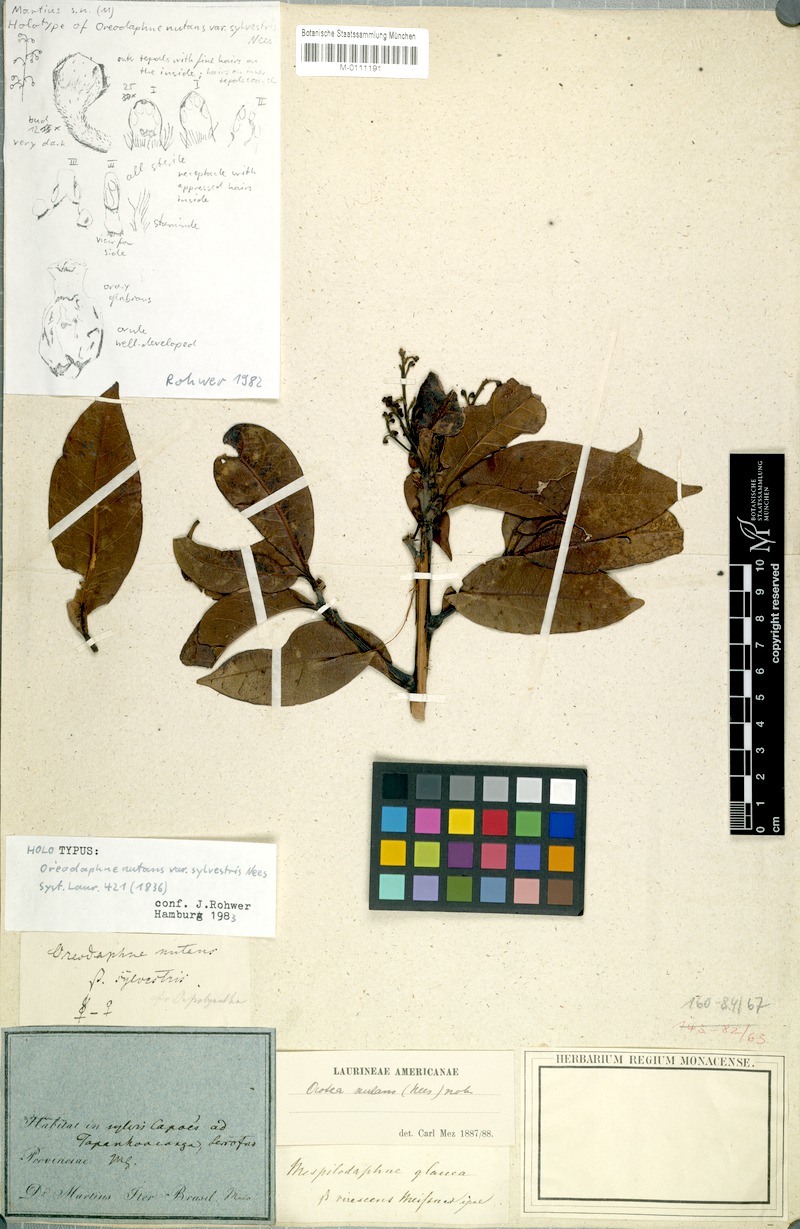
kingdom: Plantae
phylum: Tracheophyta
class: Magnoliopsida
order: Laurales
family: Lauraceae
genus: Mespilodaphne
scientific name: Mespilodaphne nutans
